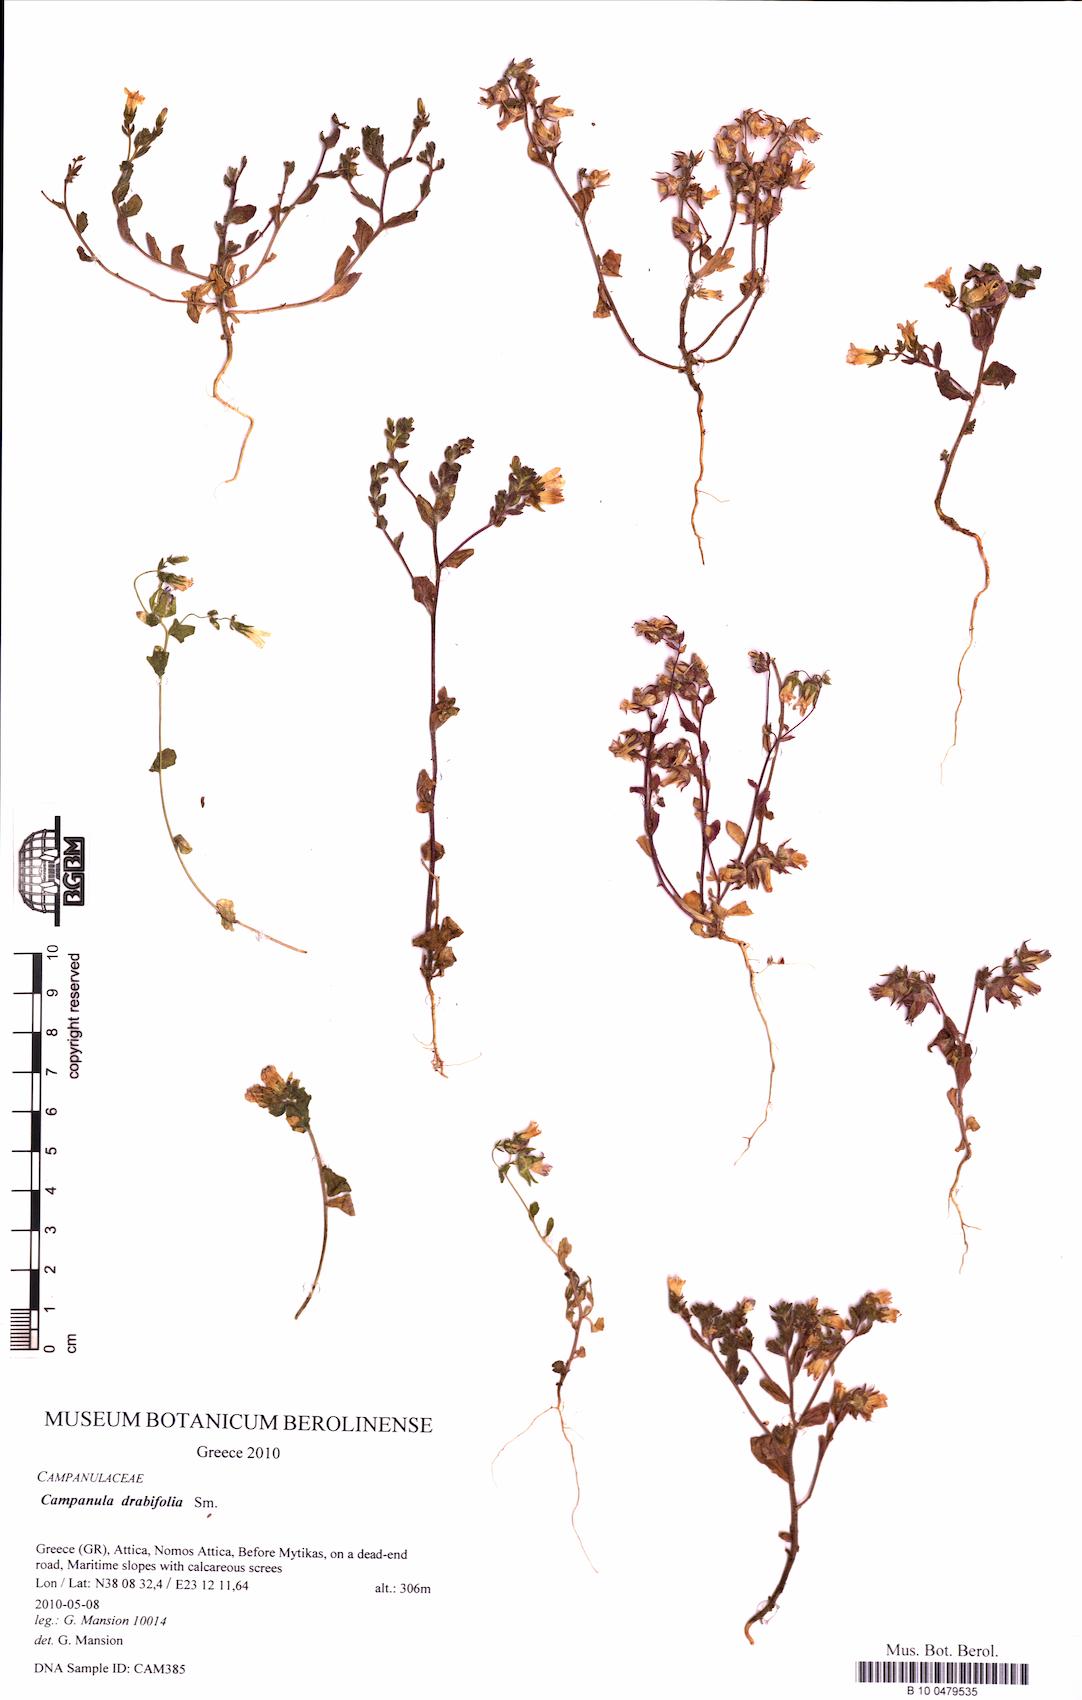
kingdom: Plantae
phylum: Tracheophyta
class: Magnoliopsida
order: Asterales
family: Campanulaceae
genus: Campanula
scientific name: Campanula drabifolia
